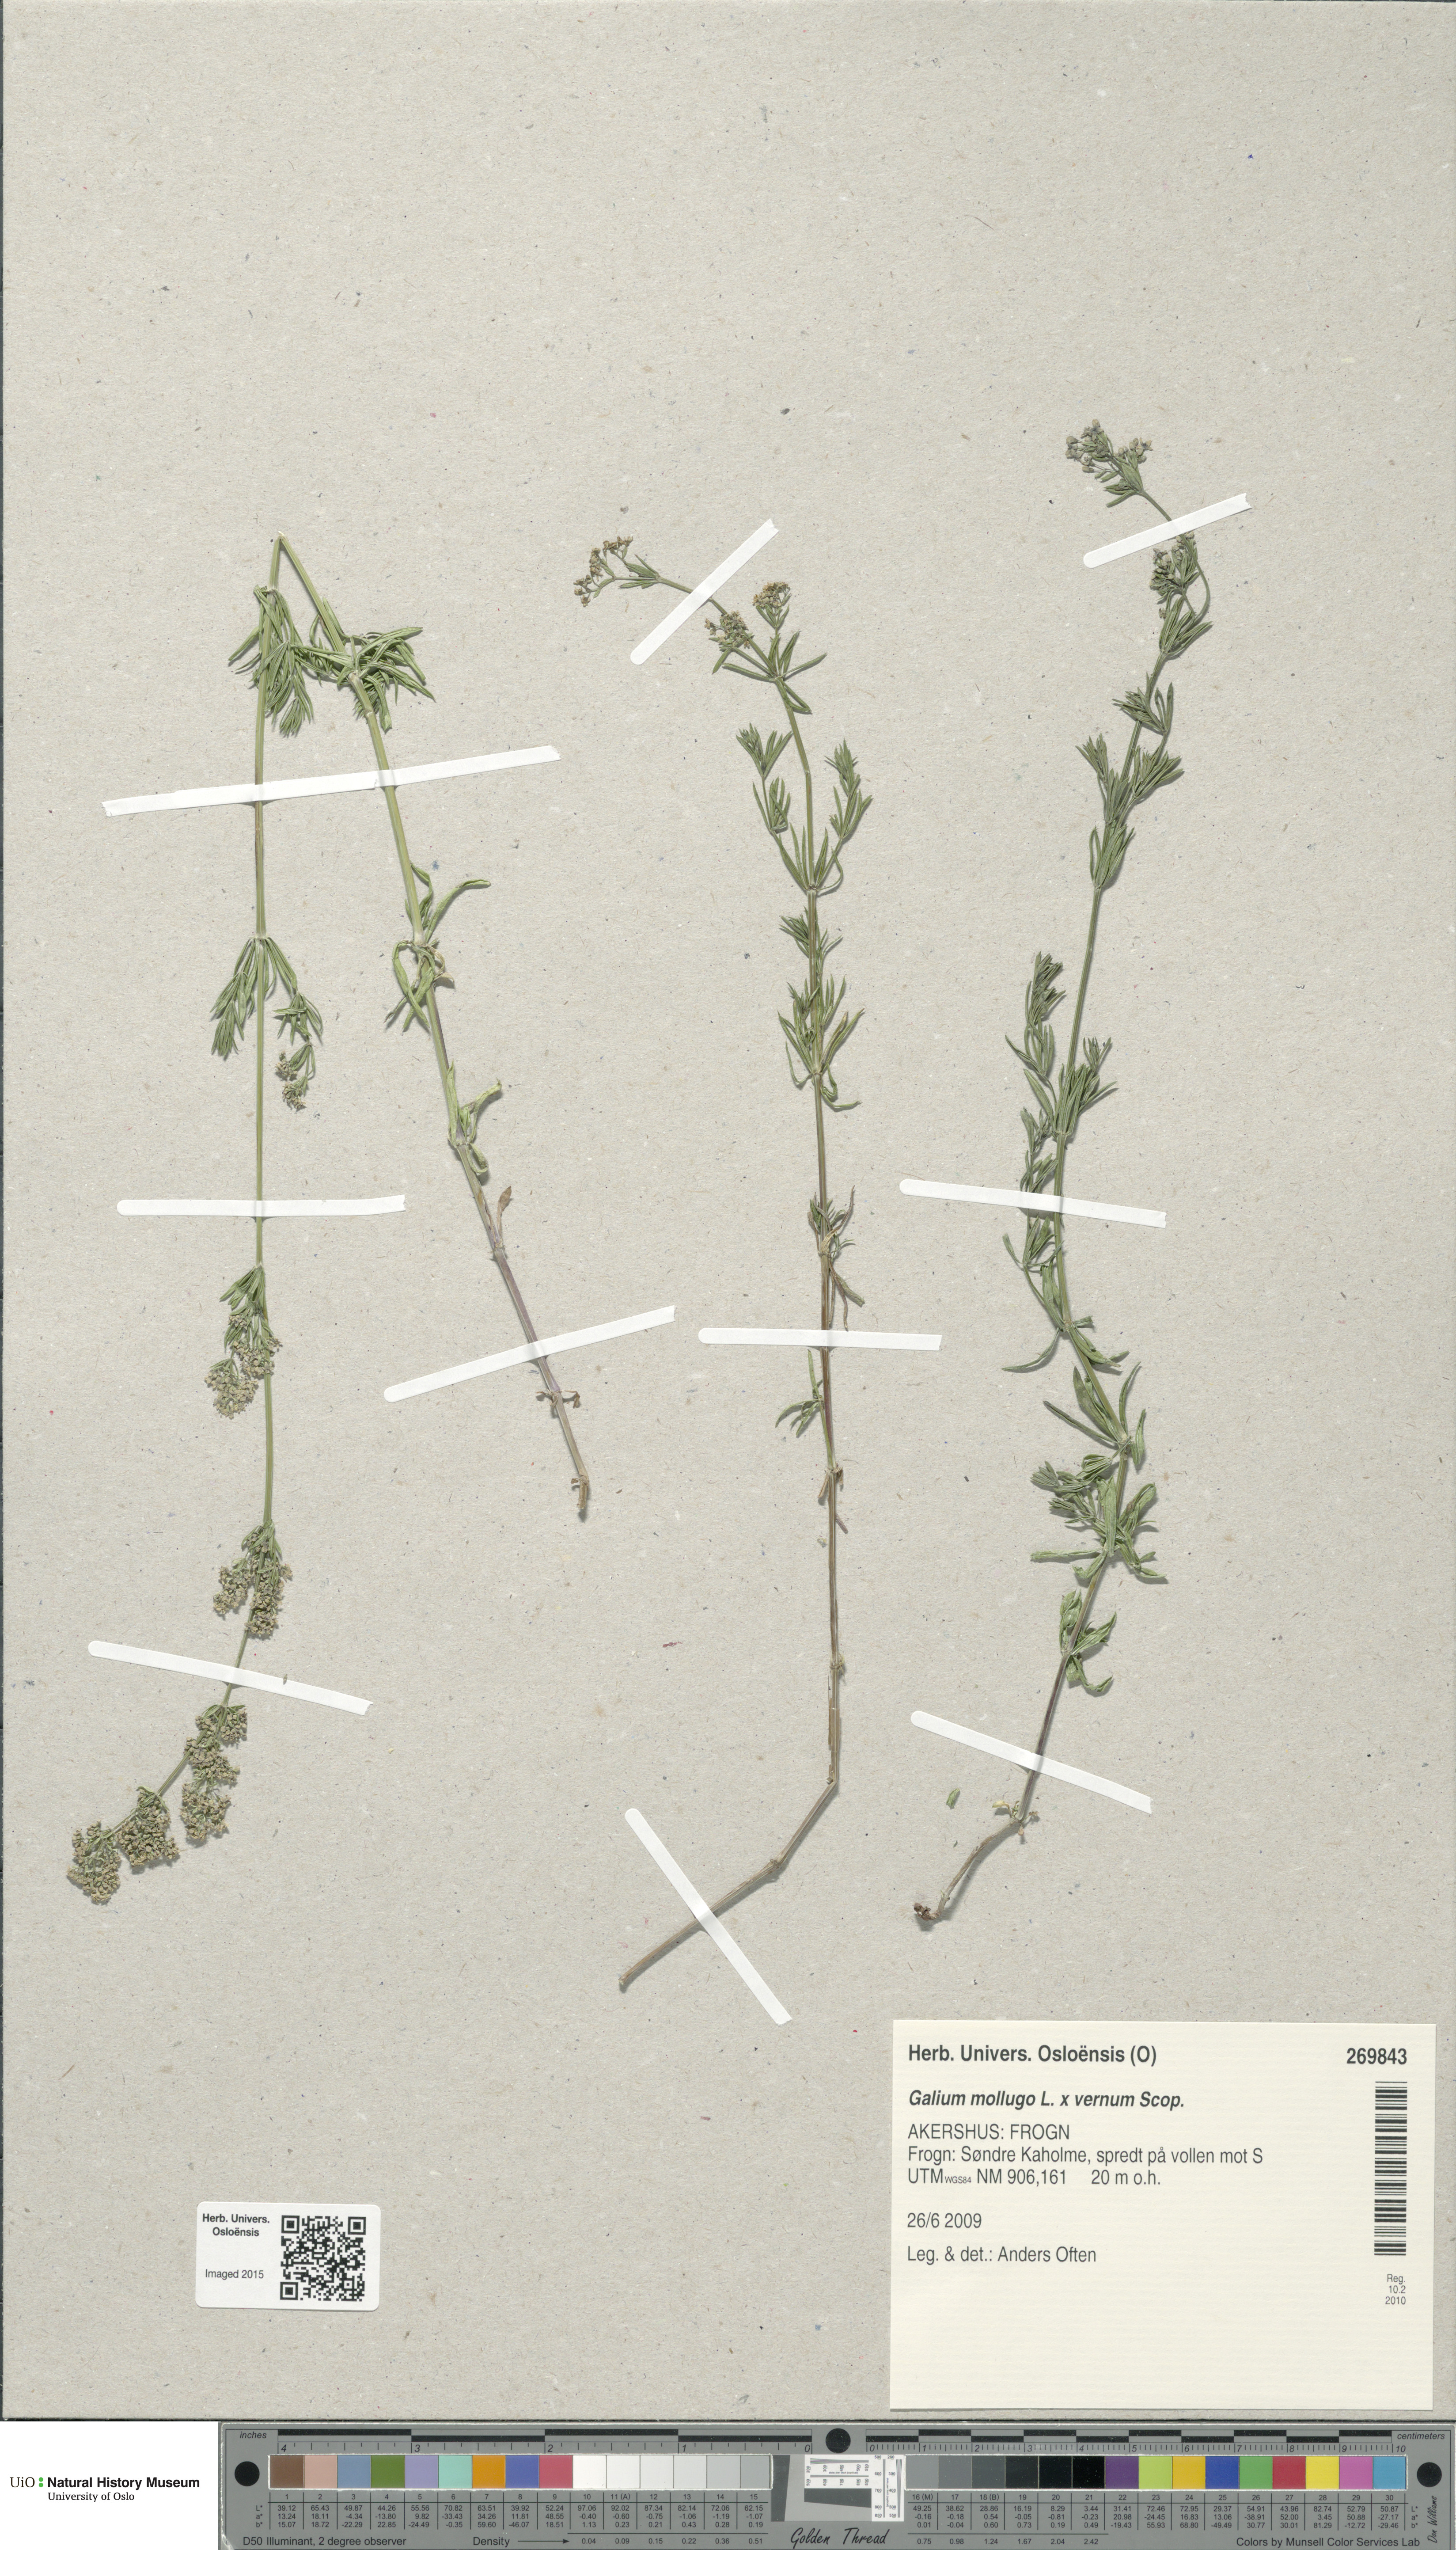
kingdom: Plantae
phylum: Tracheophyta
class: Magnoliopsida
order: Gentianales
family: Rubiaceae
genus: Galium
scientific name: Galium
